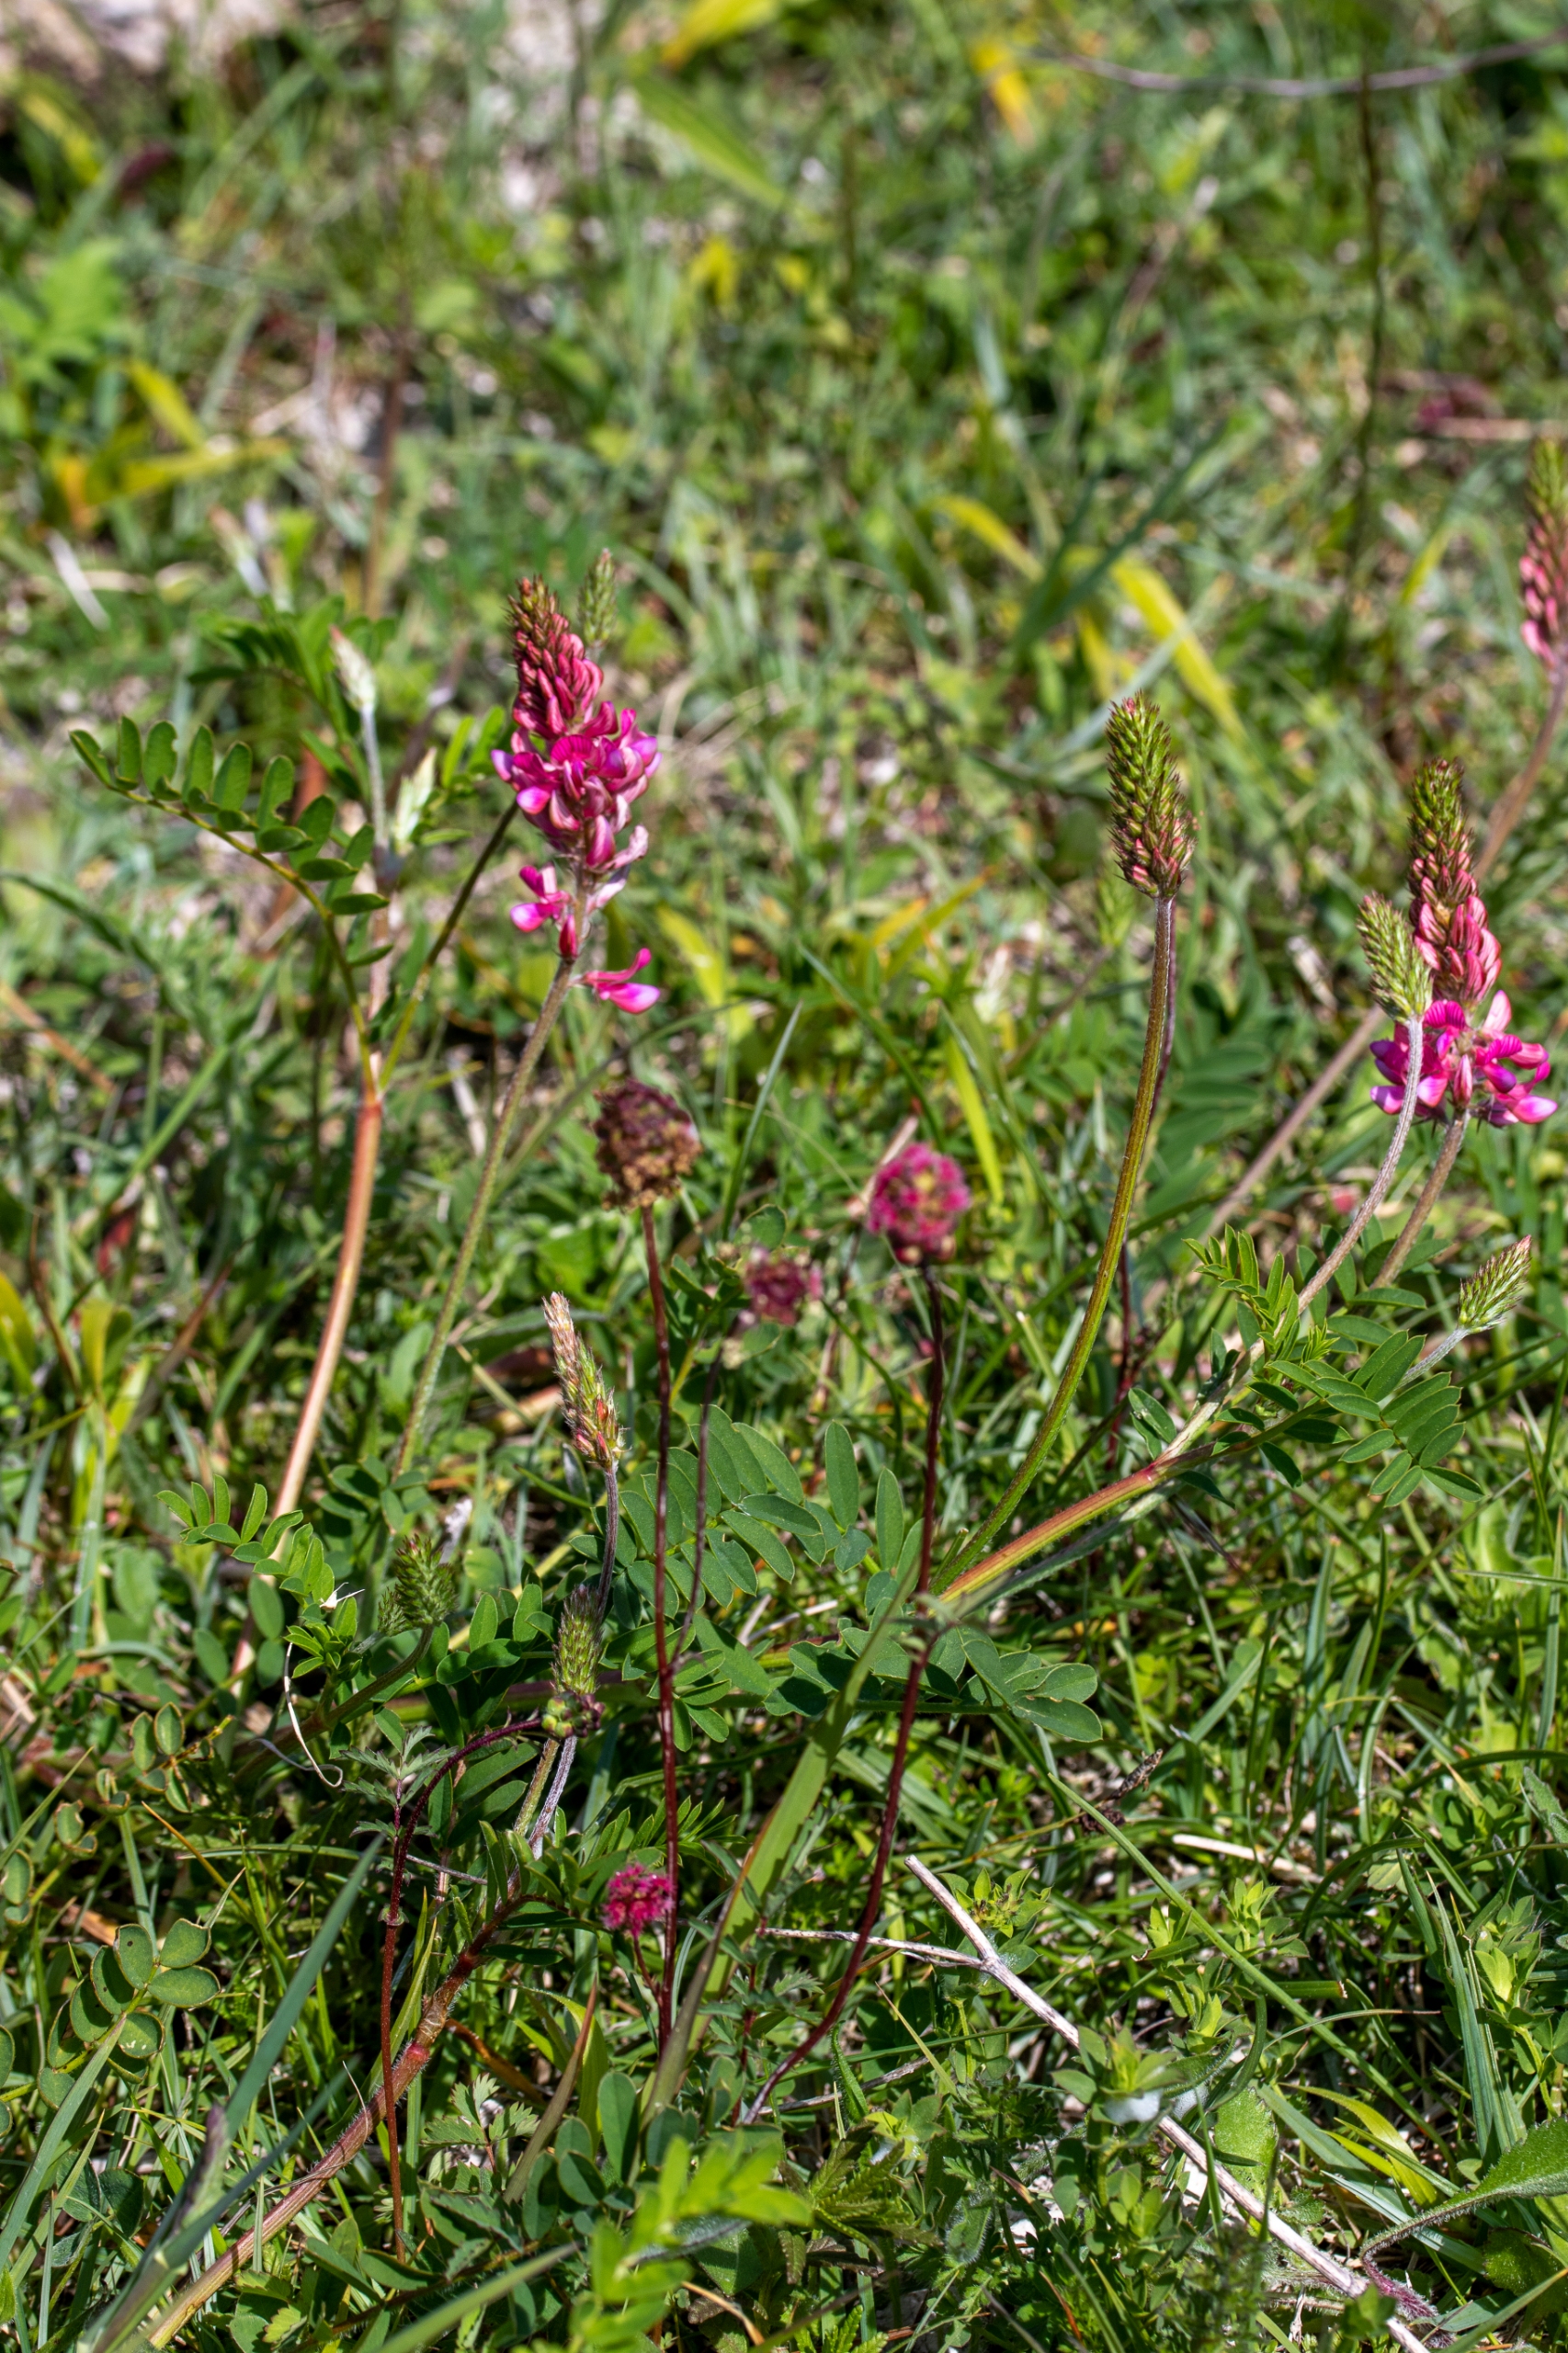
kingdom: Plantae
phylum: Tracheophyta
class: Magnoliopsida
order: Fabales
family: Fabaceae
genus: Onobrychis
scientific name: Onobrychis viciifolia
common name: Esparsette
